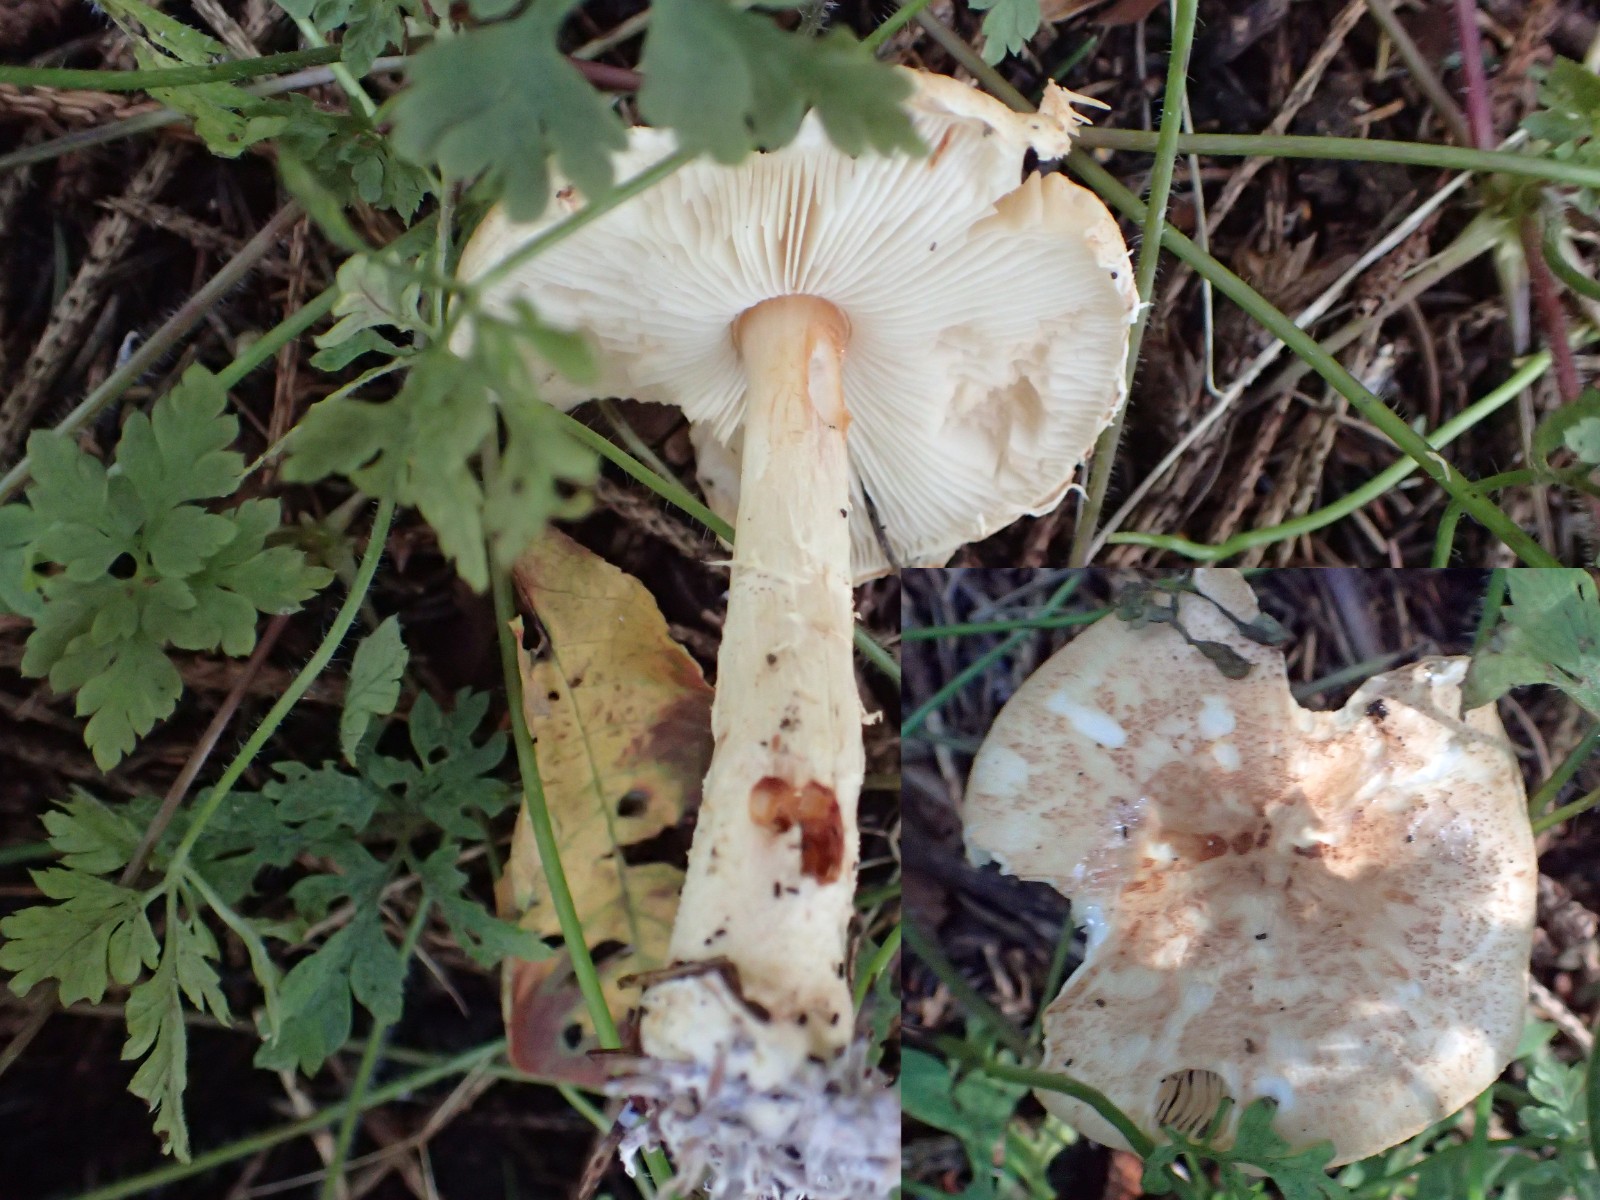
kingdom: Fungi
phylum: Basidiomycota
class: Agaricomycetes
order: Agaricales
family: Agaricaceae
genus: Lepiota
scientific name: Lepiota ochraceofulva
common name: sødtduftende parasolhat
